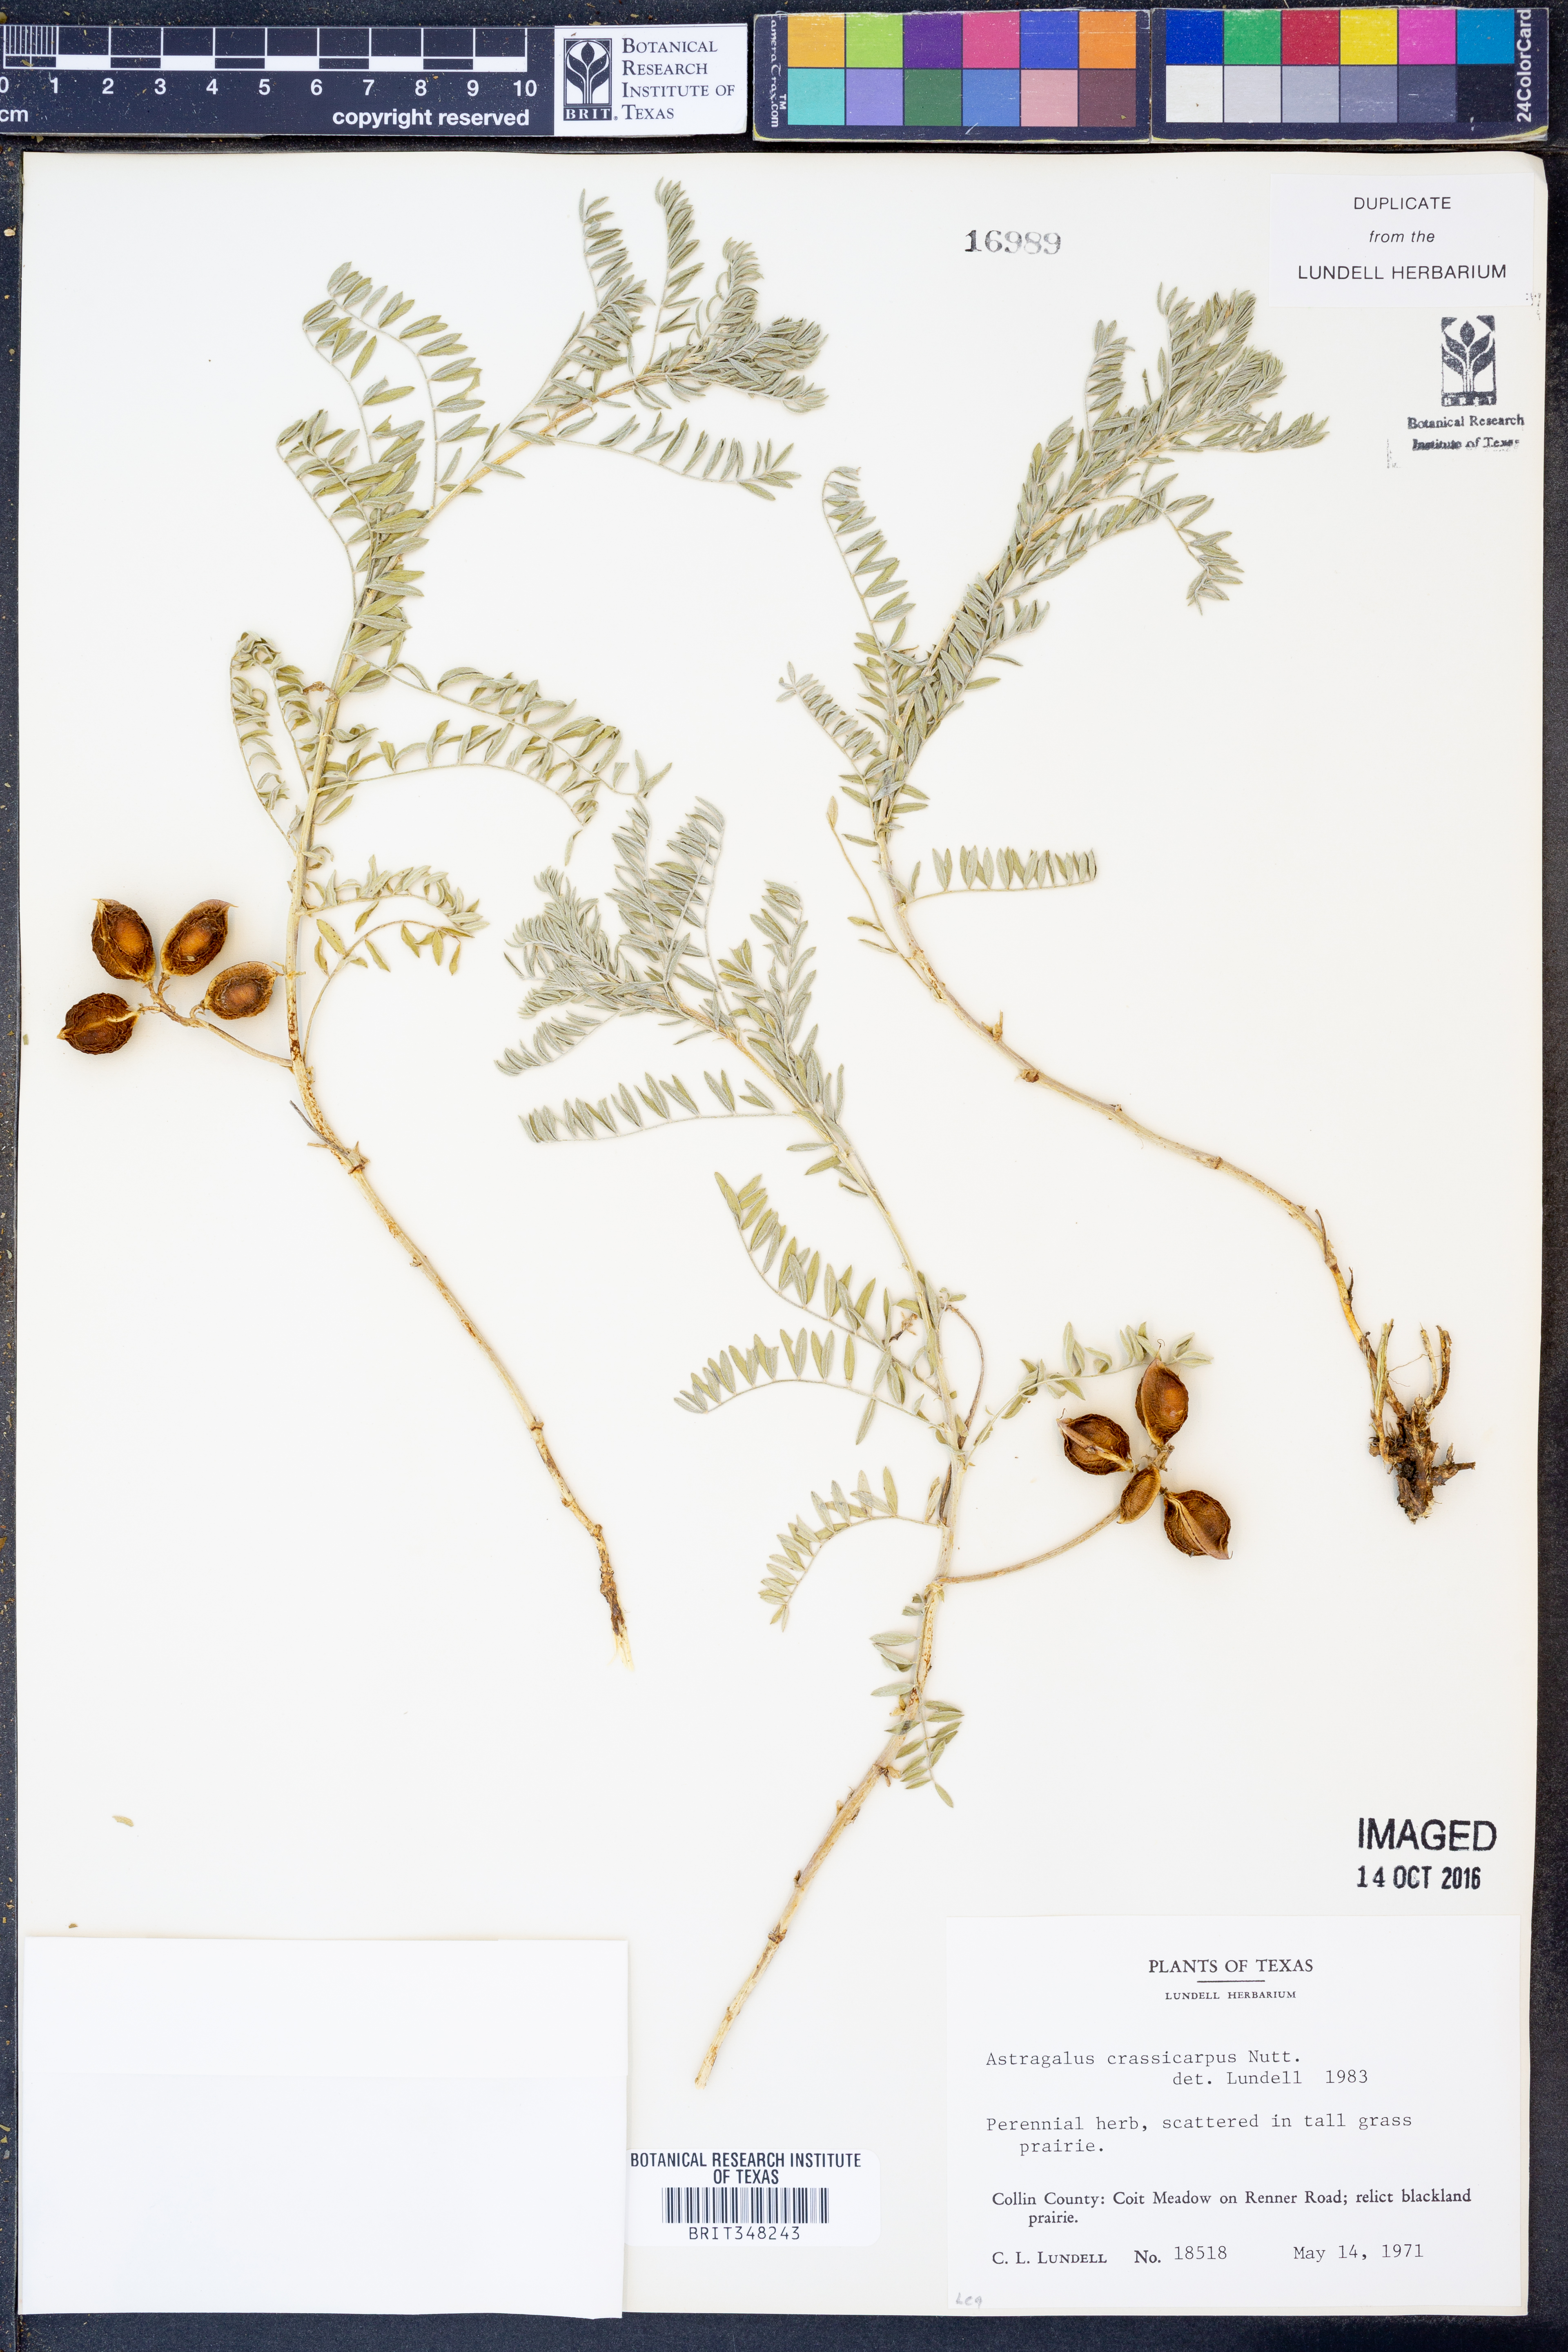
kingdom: Plantae
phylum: Tracheophyta
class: Magnoliopsida
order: Fabales
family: Fabaceae
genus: Astragalus
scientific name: Astragalus crassicarpus
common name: Ground-plum milk-vetch
